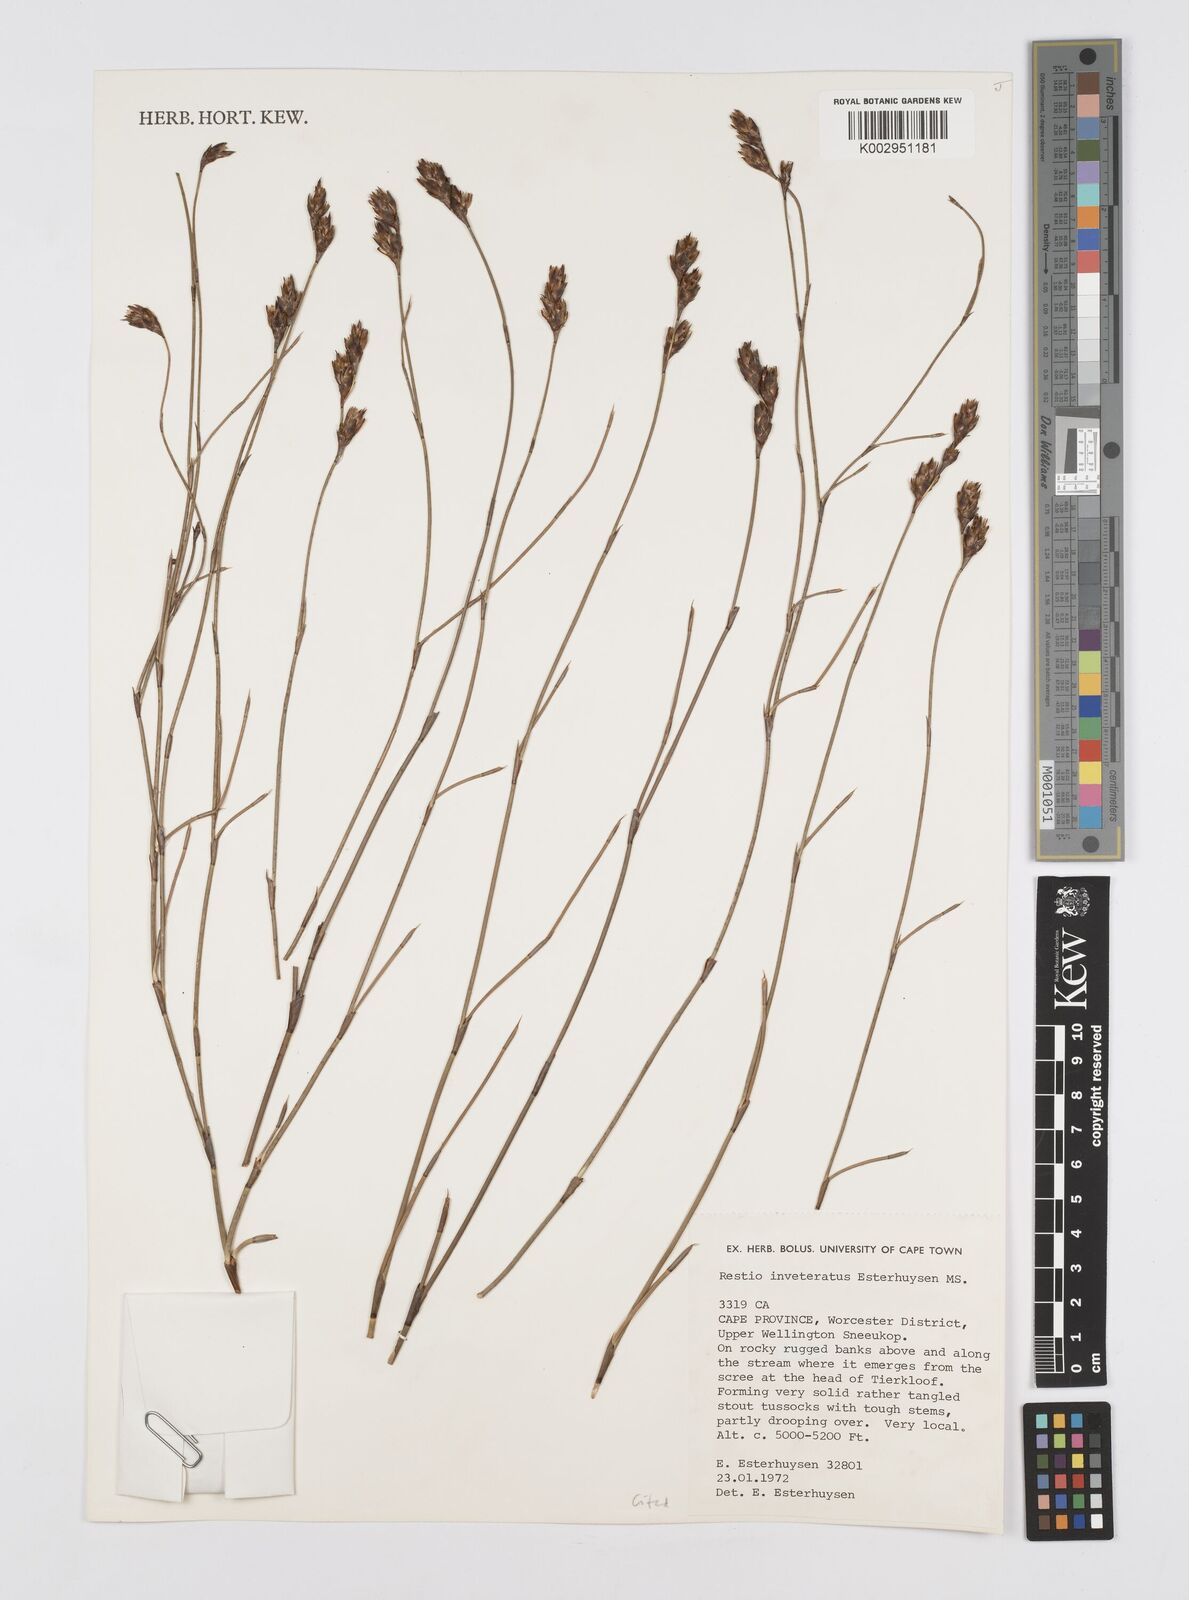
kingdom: Plantae
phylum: Tracheophyta
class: Liliopsida
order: Poales
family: Restionaceae
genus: Restio
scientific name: Restio inveteratus
